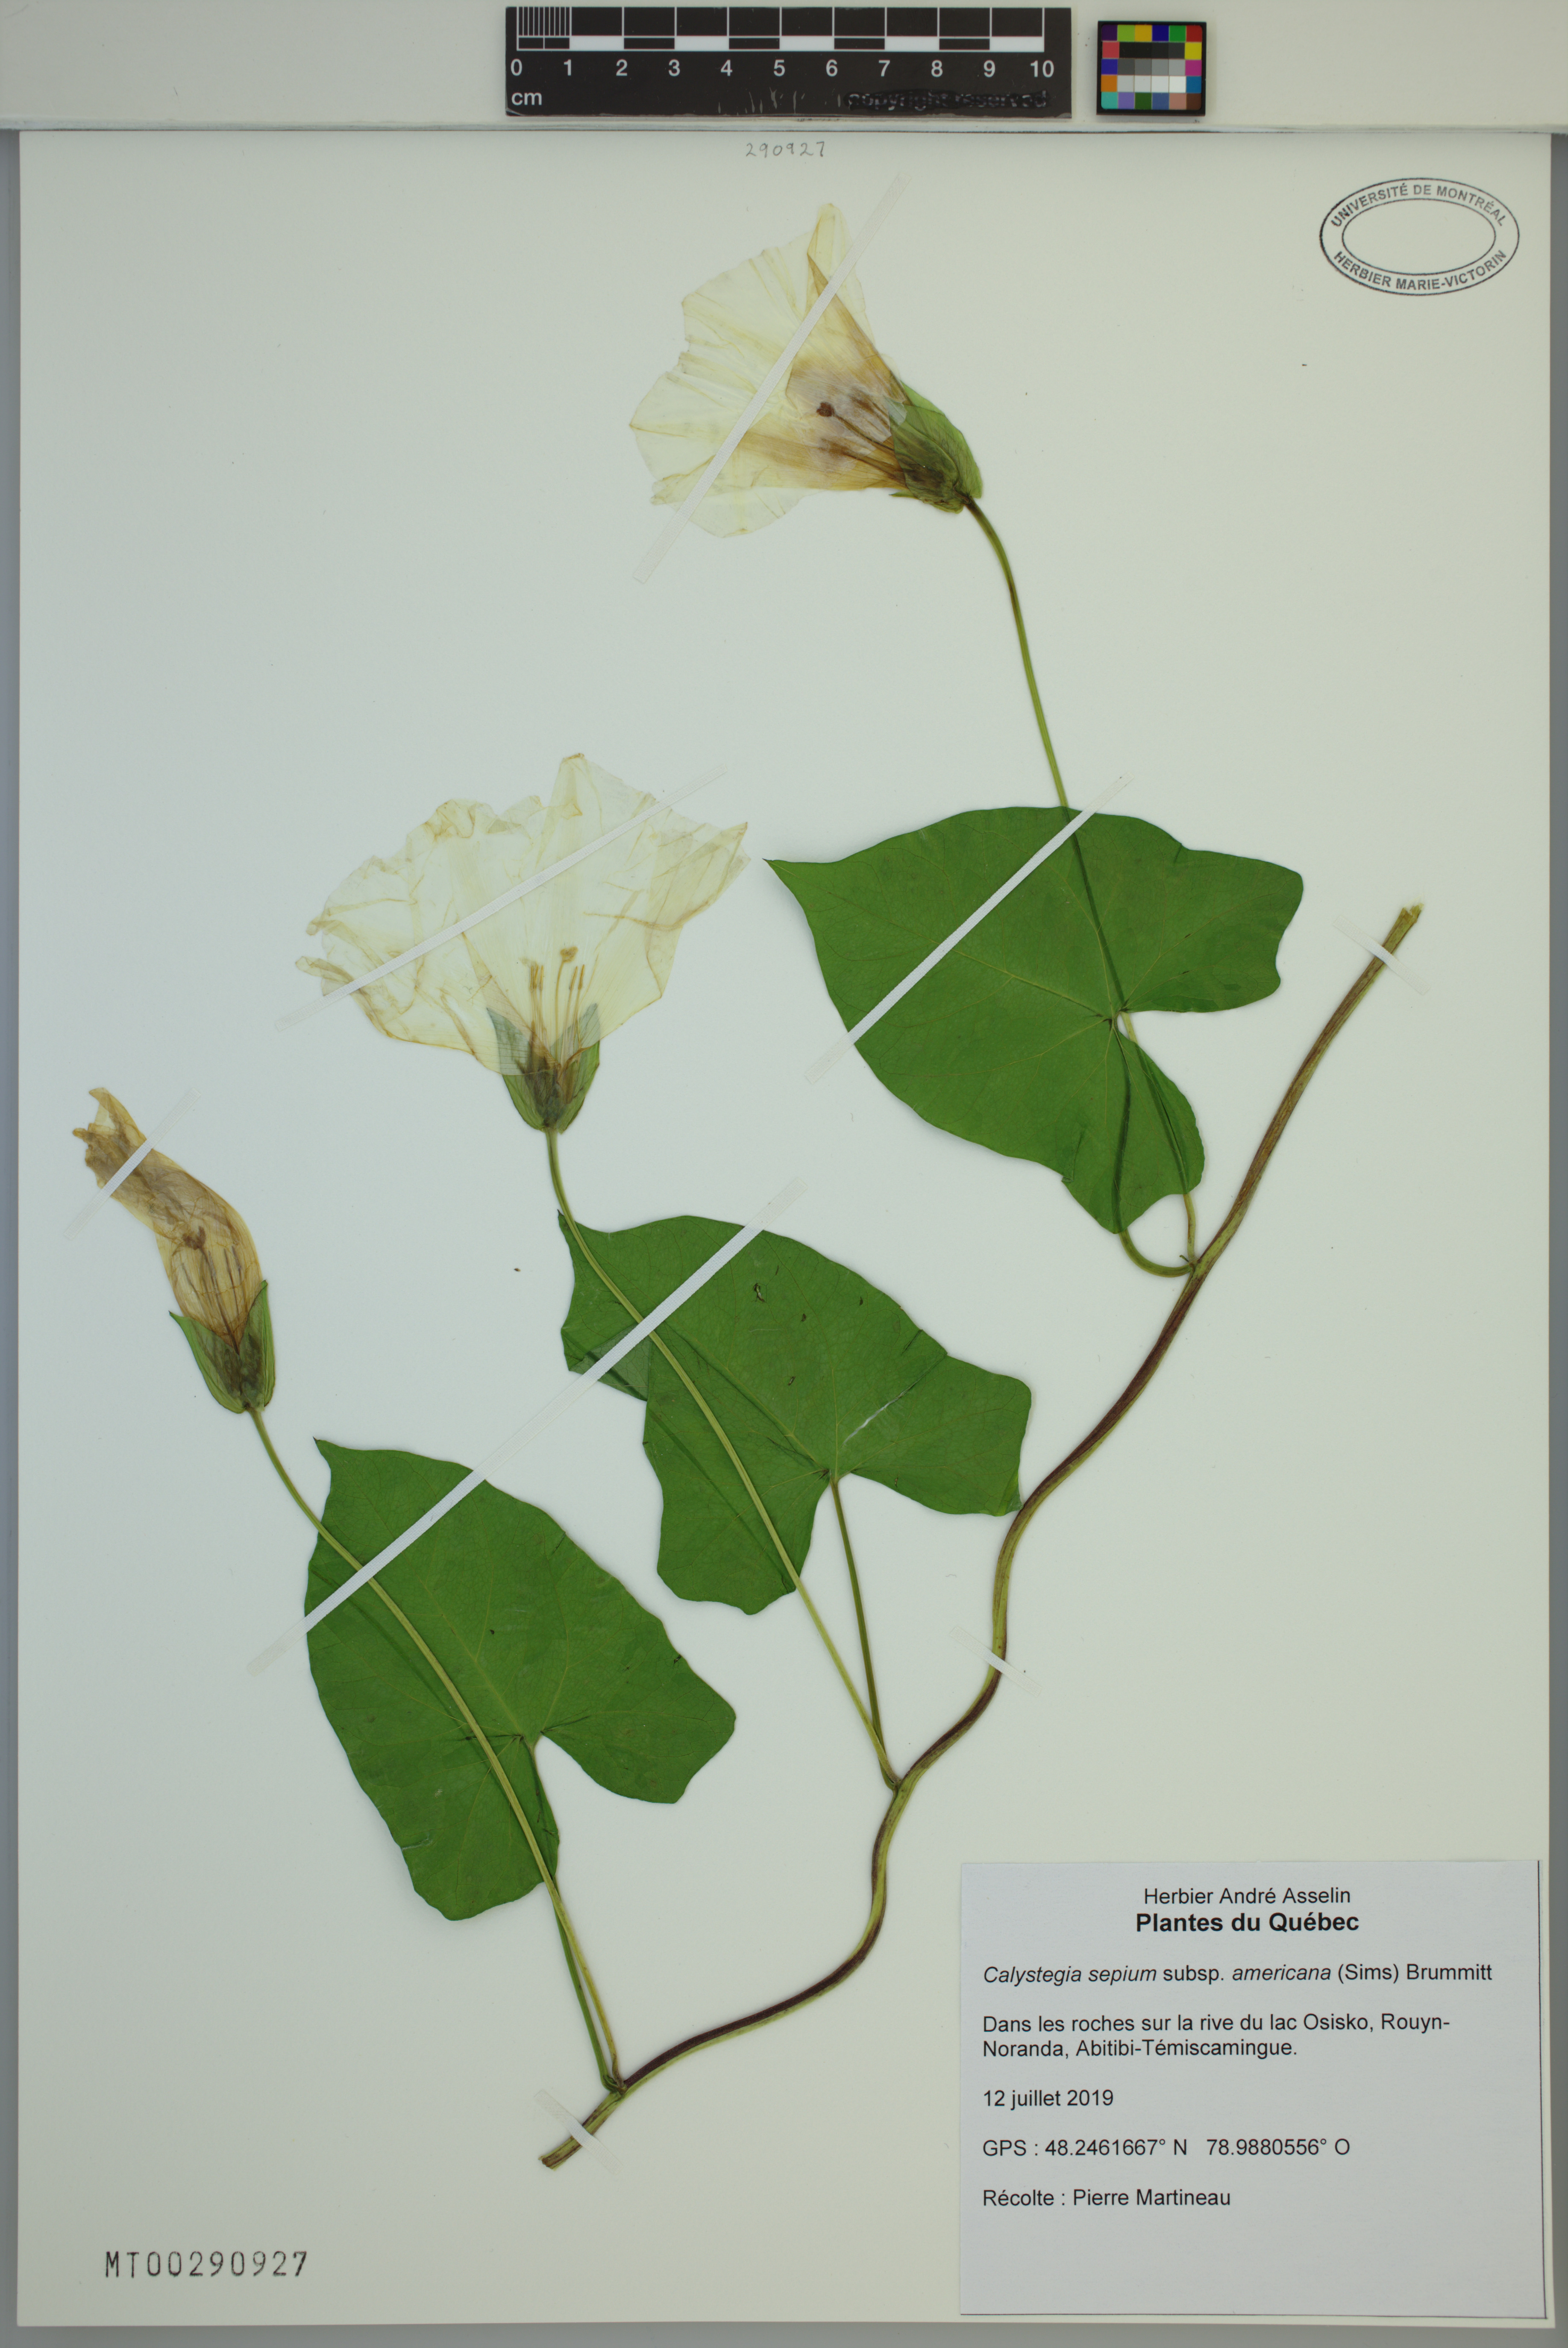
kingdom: Plantae
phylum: Tracheophyta
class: Magnoliopsida
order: Solanales
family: Convolvulaceae
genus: Calystegia
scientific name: Calystegia sepium
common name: Hedge bindweed
